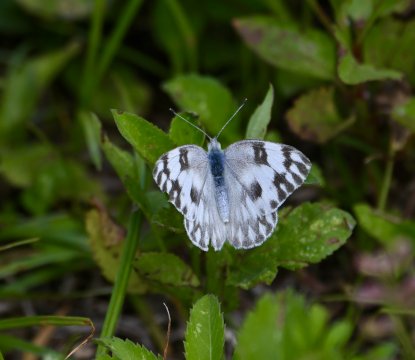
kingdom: Animalia
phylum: Arthropoda
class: Insecta
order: Lepidoptera
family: Pieridae
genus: Pontia
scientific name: Pontia protodice
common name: Checkered White
